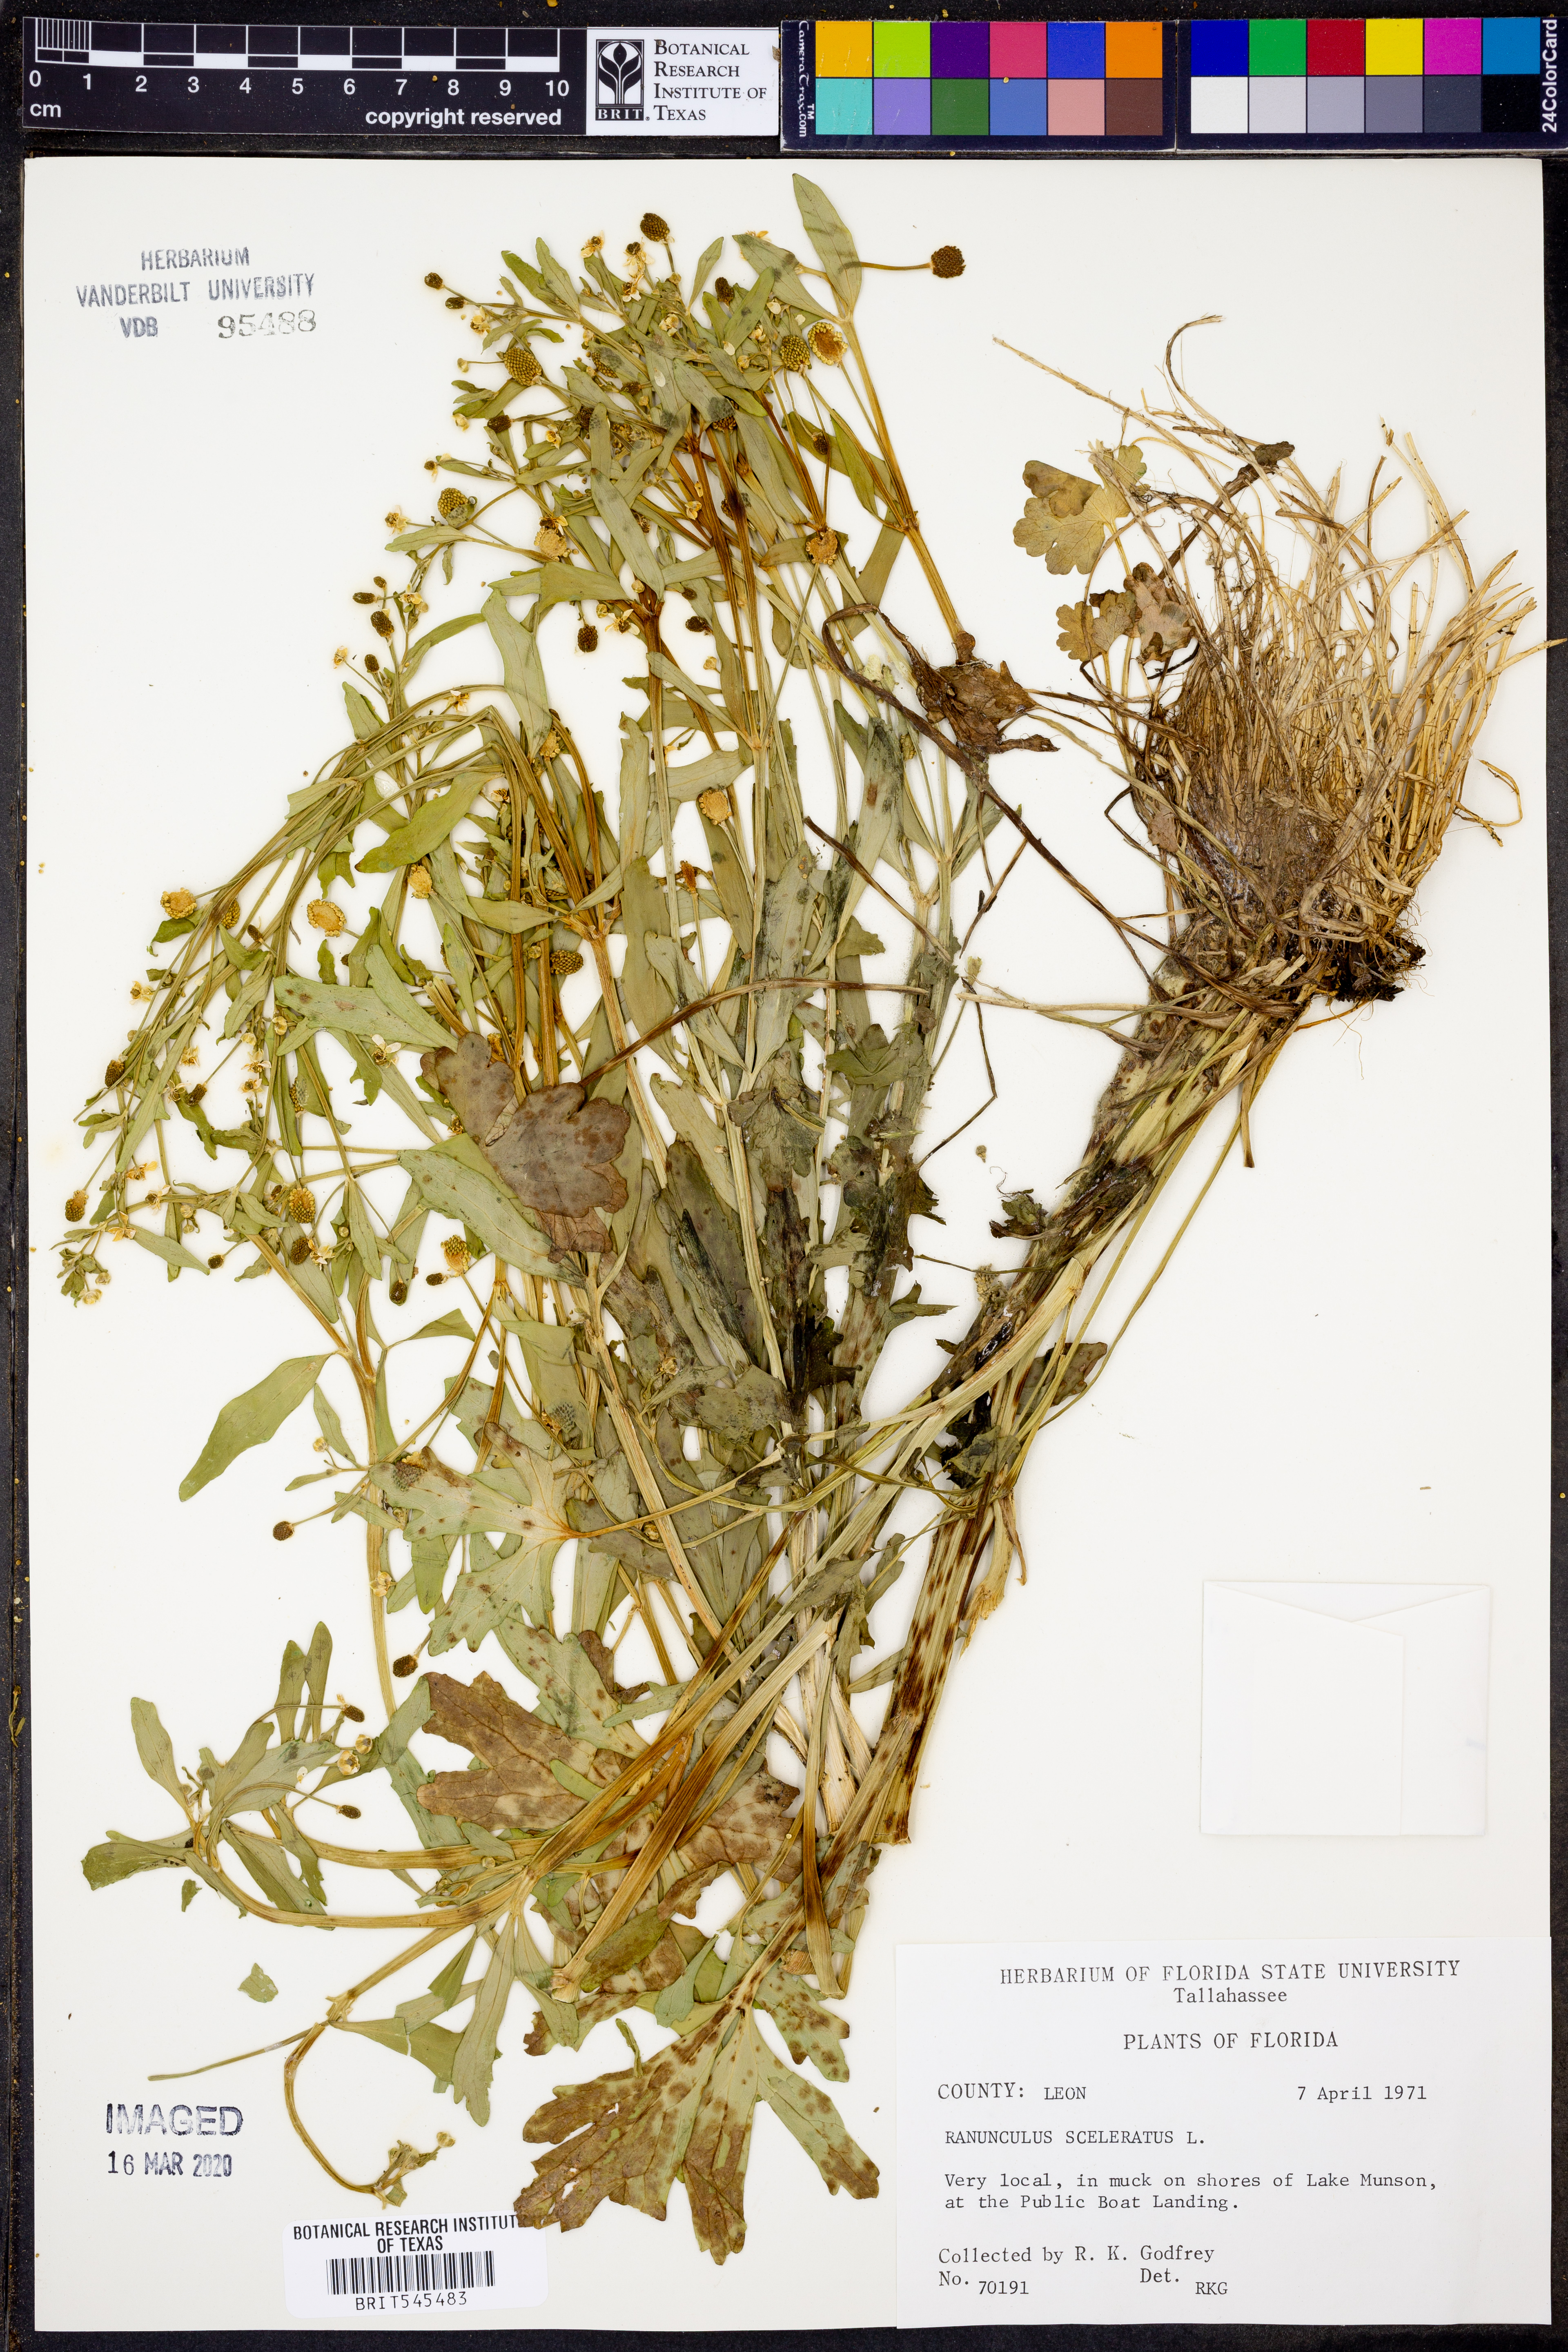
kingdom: Plantae
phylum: Tracheophyta
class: Magnoliopsida
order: Ranunculales
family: Ranunculaceae
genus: Ranunculus
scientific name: Ranunculus sceleratus
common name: Celery-leaved buttercup
